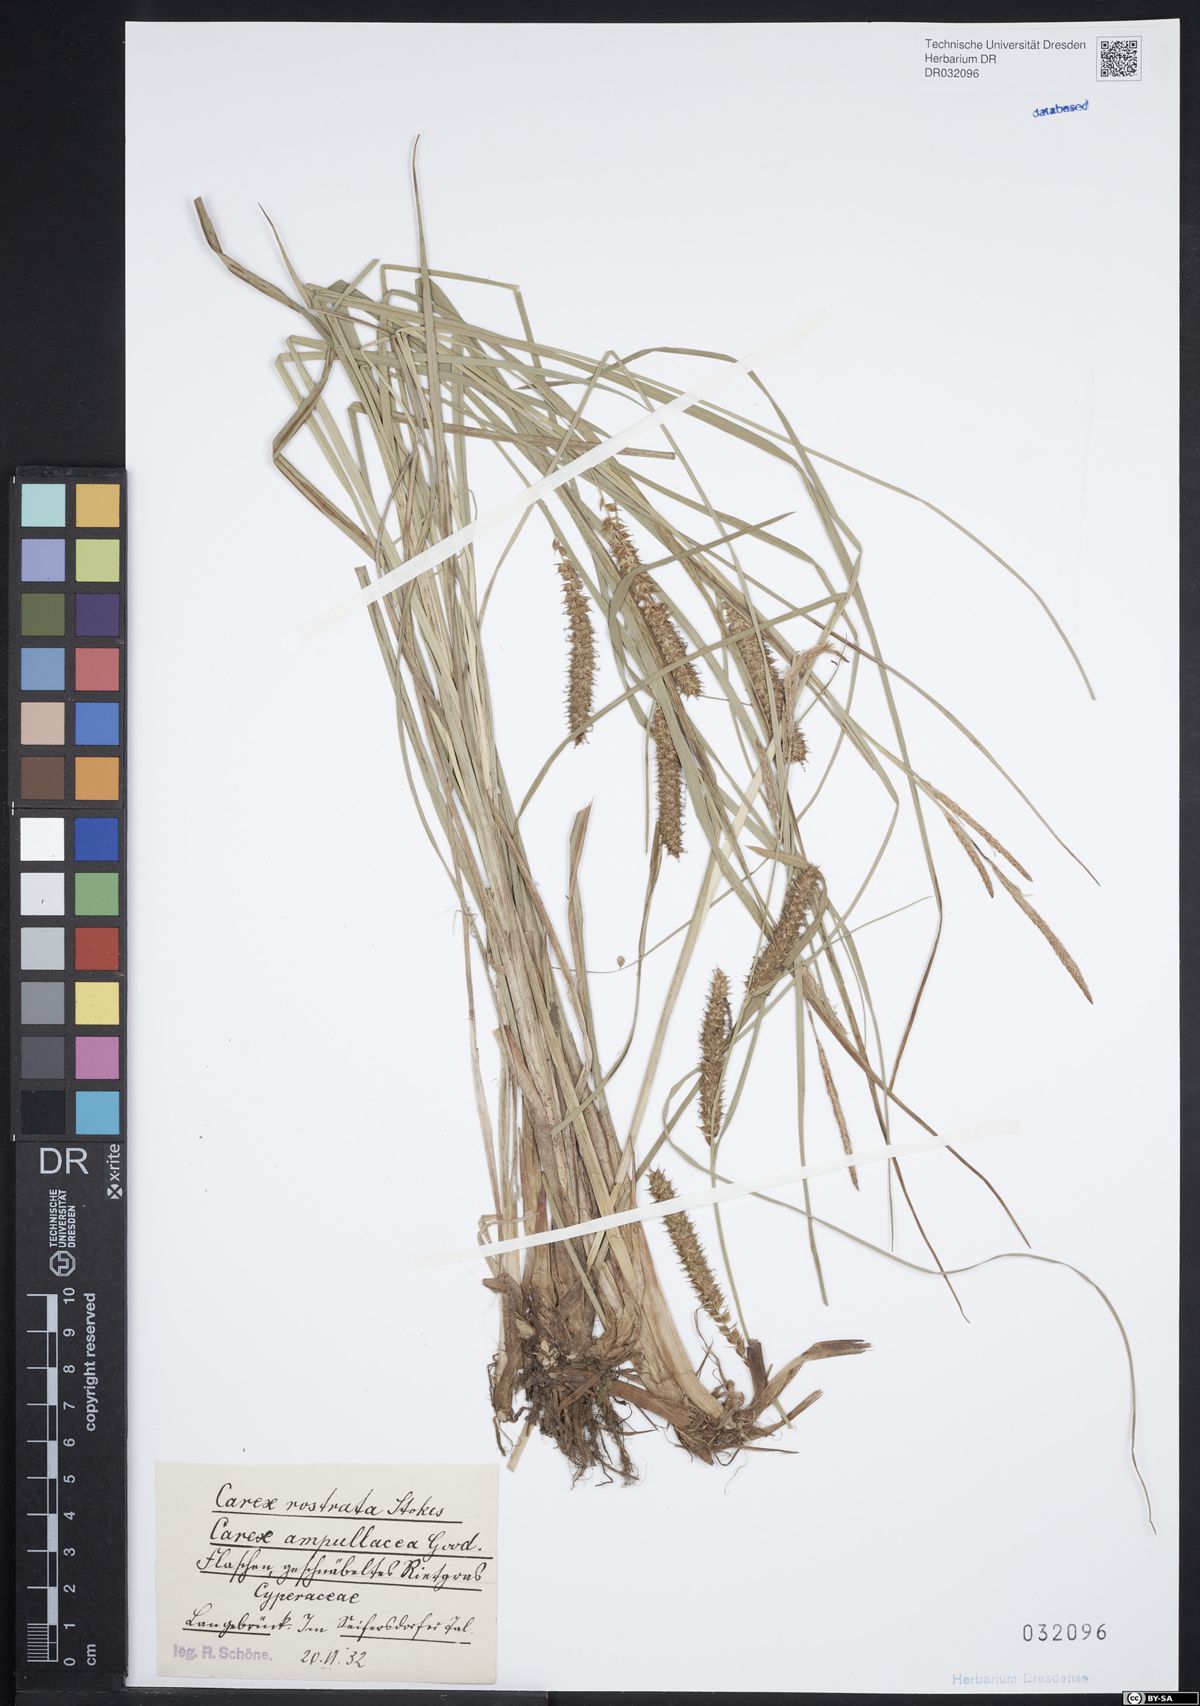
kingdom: Plantae
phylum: Tracheophyta
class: Liliopsida
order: Poales
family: Cyperaceae
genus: Carex
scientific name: Carex rostrata
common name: Bottle sedge
